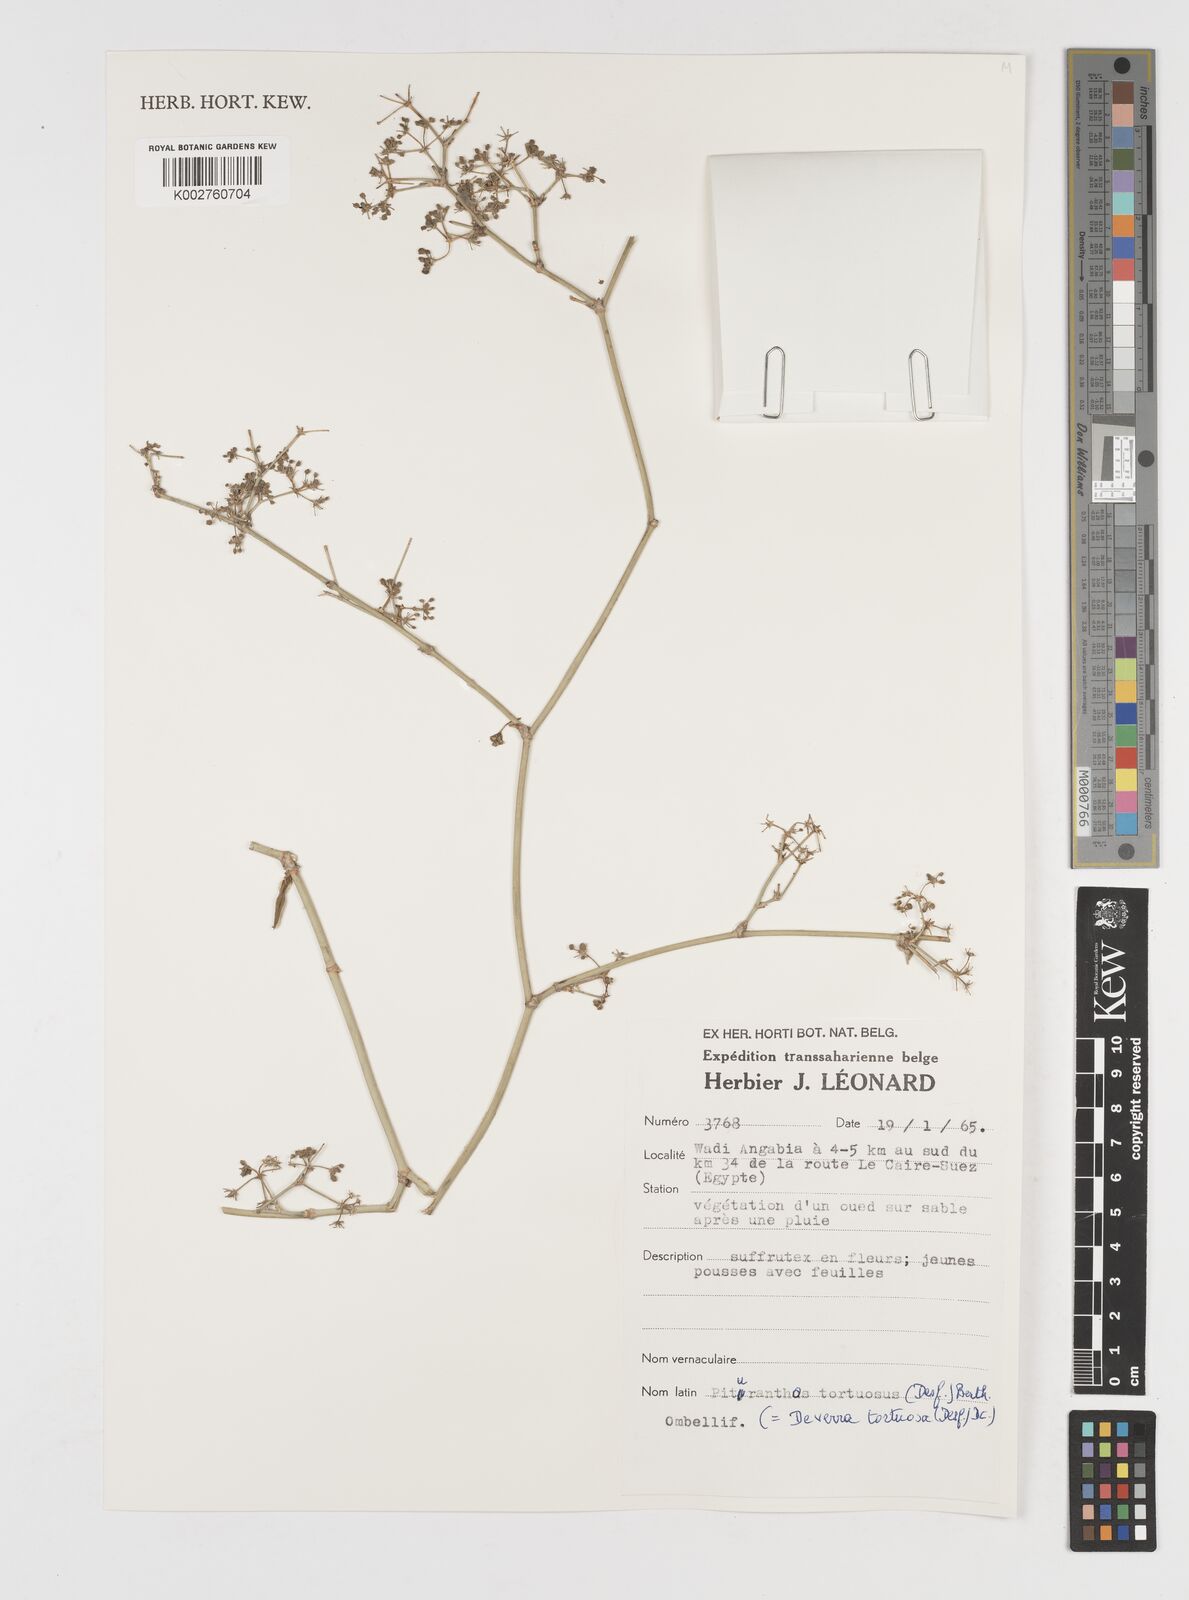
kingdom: Plantae
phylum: Tracheophyta
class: Magnoliopsida
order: Apiales
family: Apiaceae
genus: Deverra
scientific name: Deverra denudata
